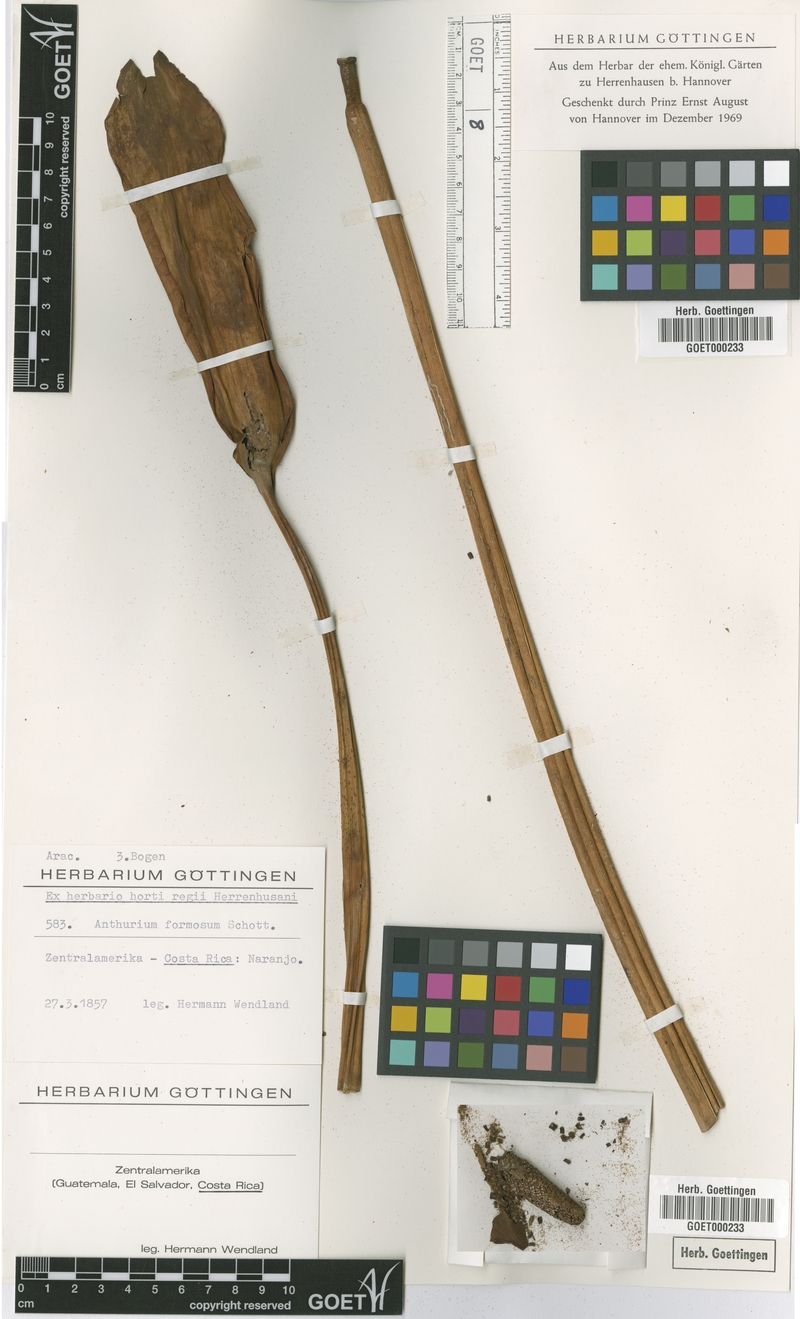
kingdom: Plantae
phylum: Tracheophyta
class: Liliopsida
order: Alismatales
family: Araceae
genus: Anthurium
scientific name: Anthurium formosum
